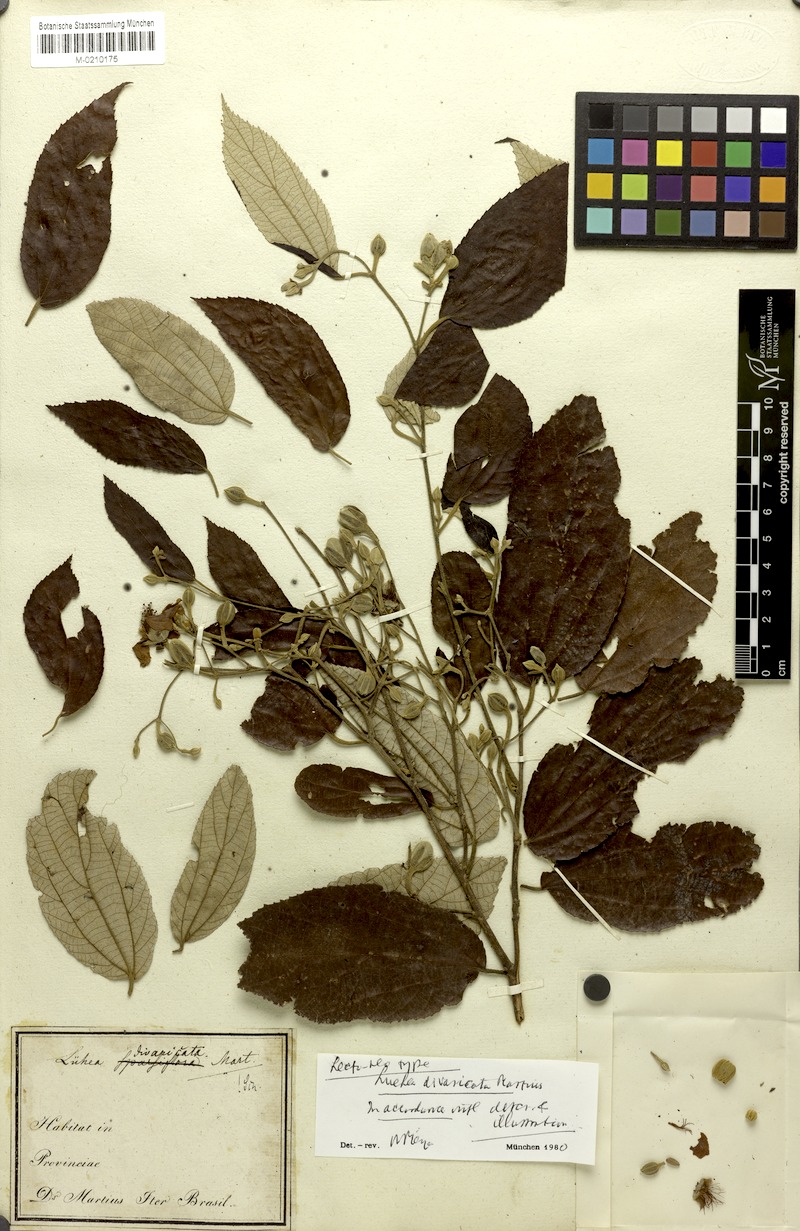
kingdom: Plantae
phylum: Tracheophyta
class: Magnoliopsida
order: Malvales
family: Malvaceae
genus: Luehea
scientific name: Luehea divaricata
